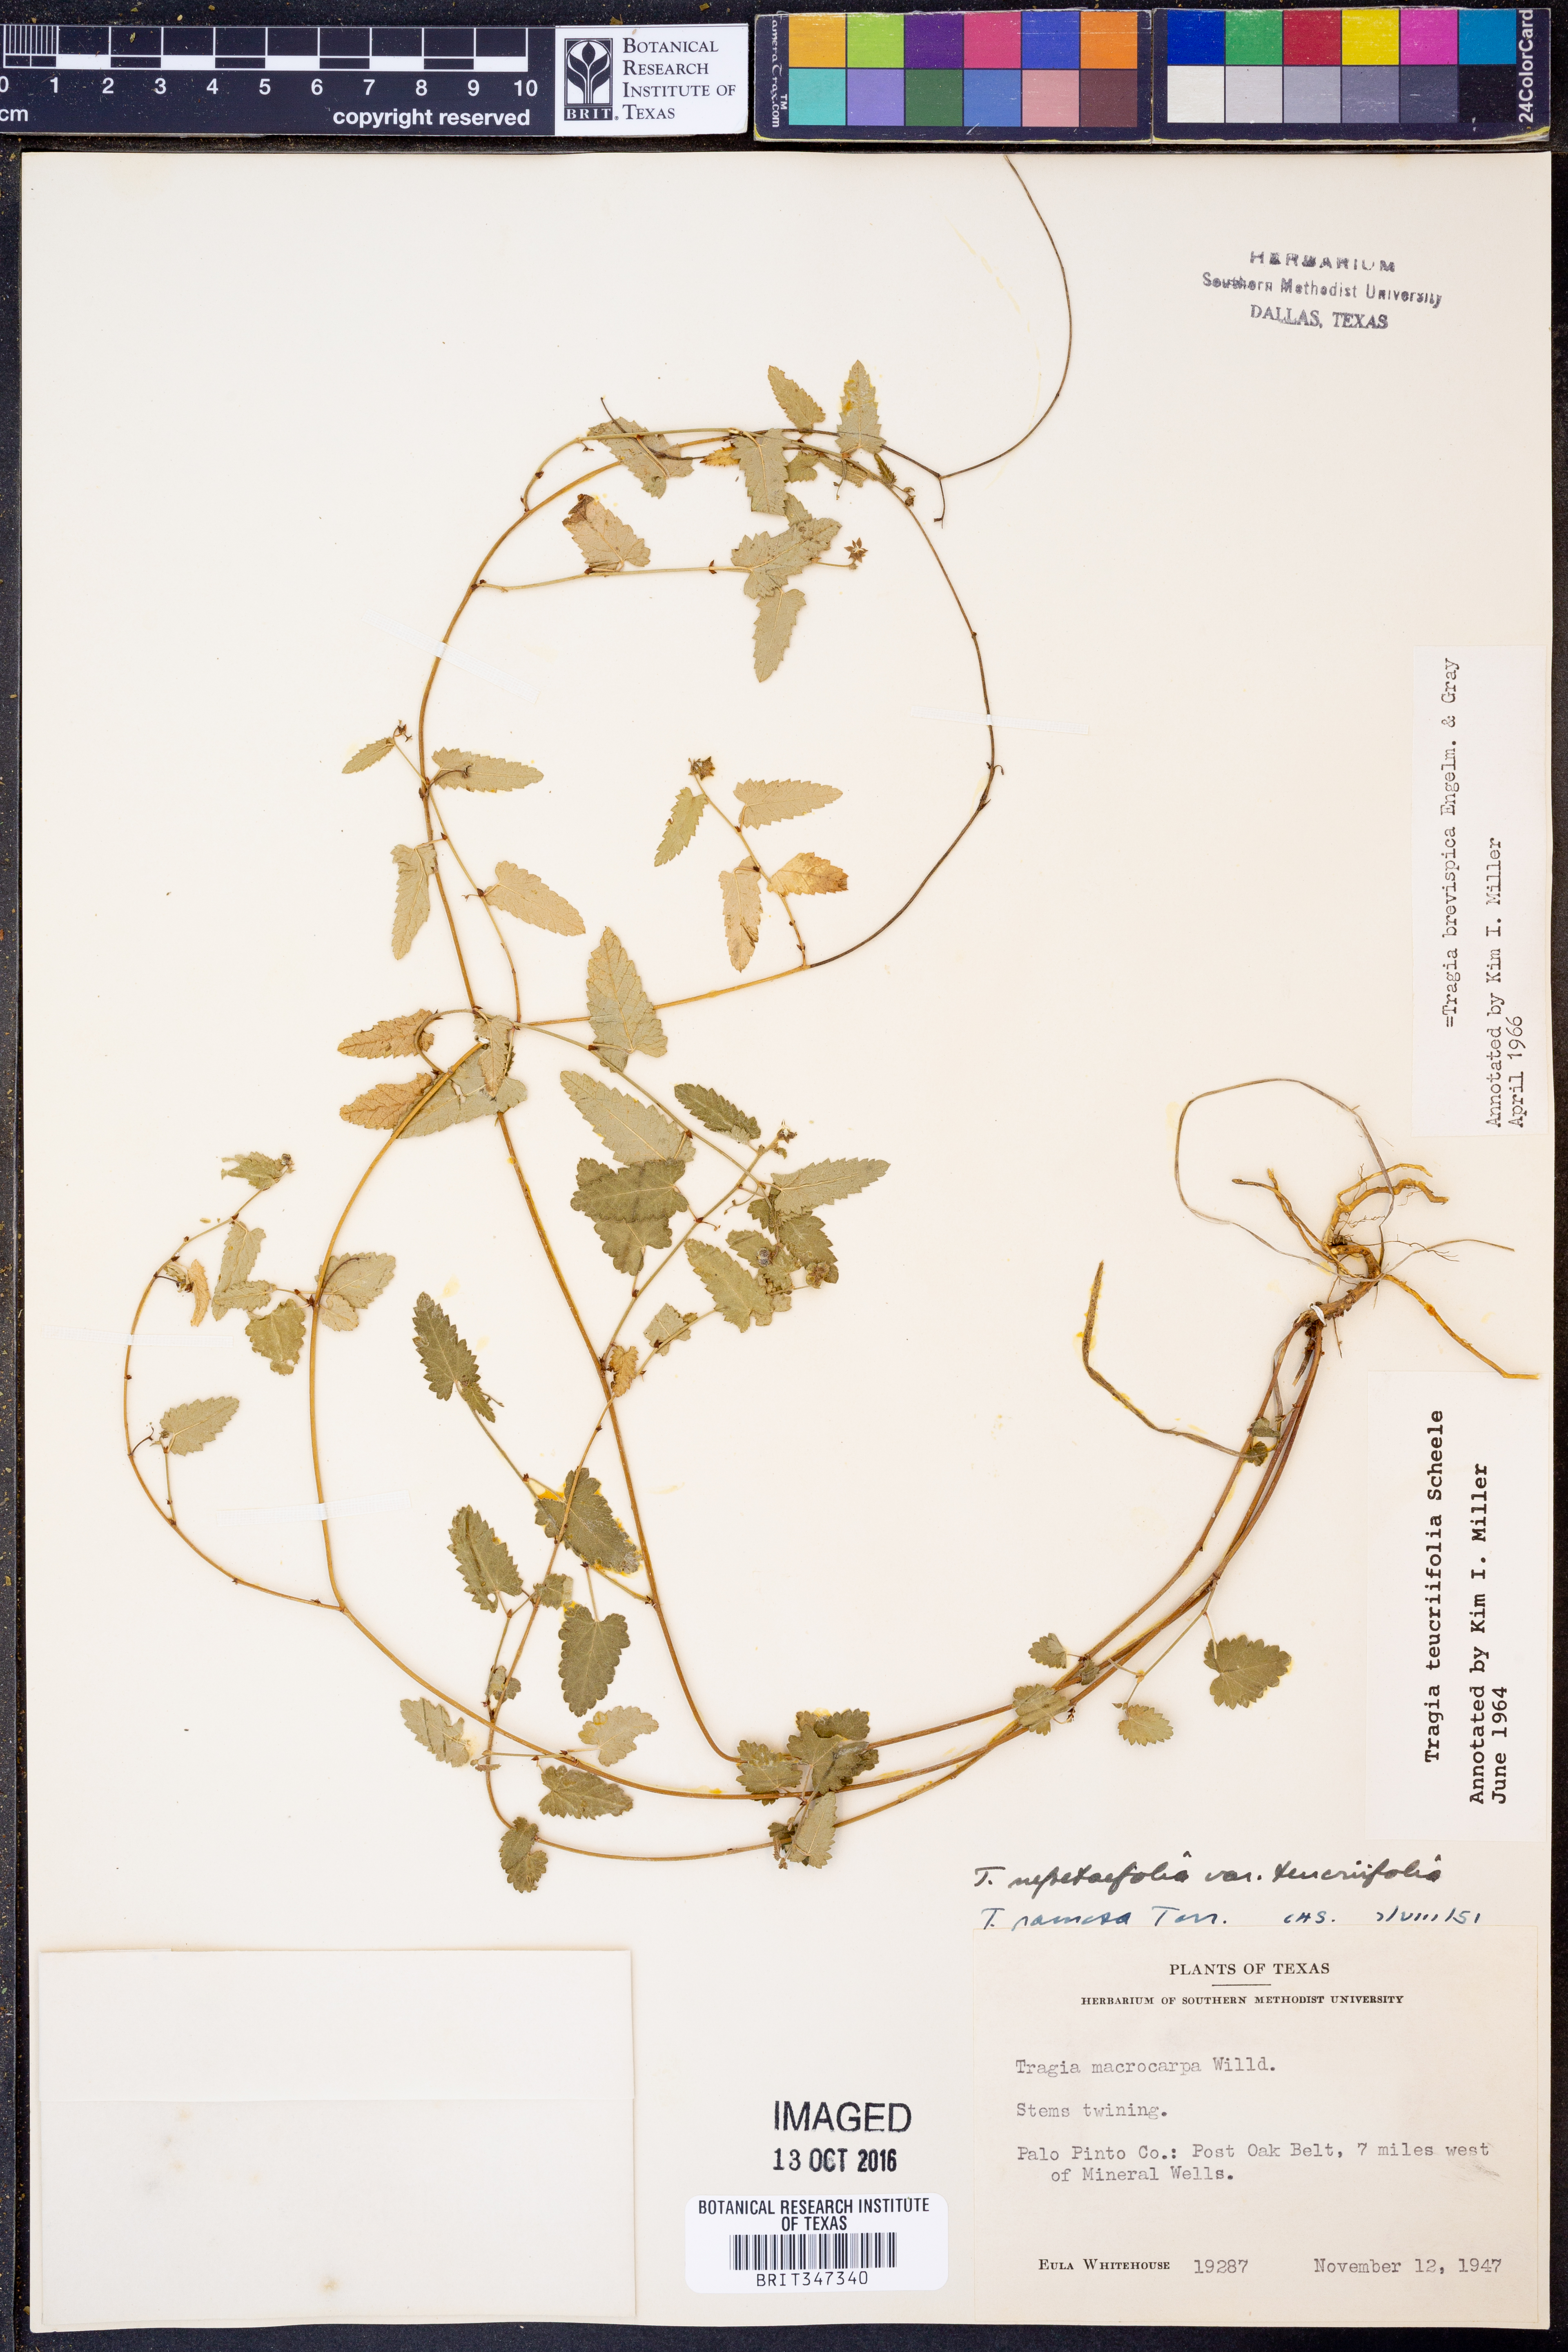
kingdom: Plantae
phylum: Tracheophyta
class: Magnoliopsida
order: Malpighiales
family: Euphorbiaceae
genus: Tragia
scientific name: Tragia brevispica
